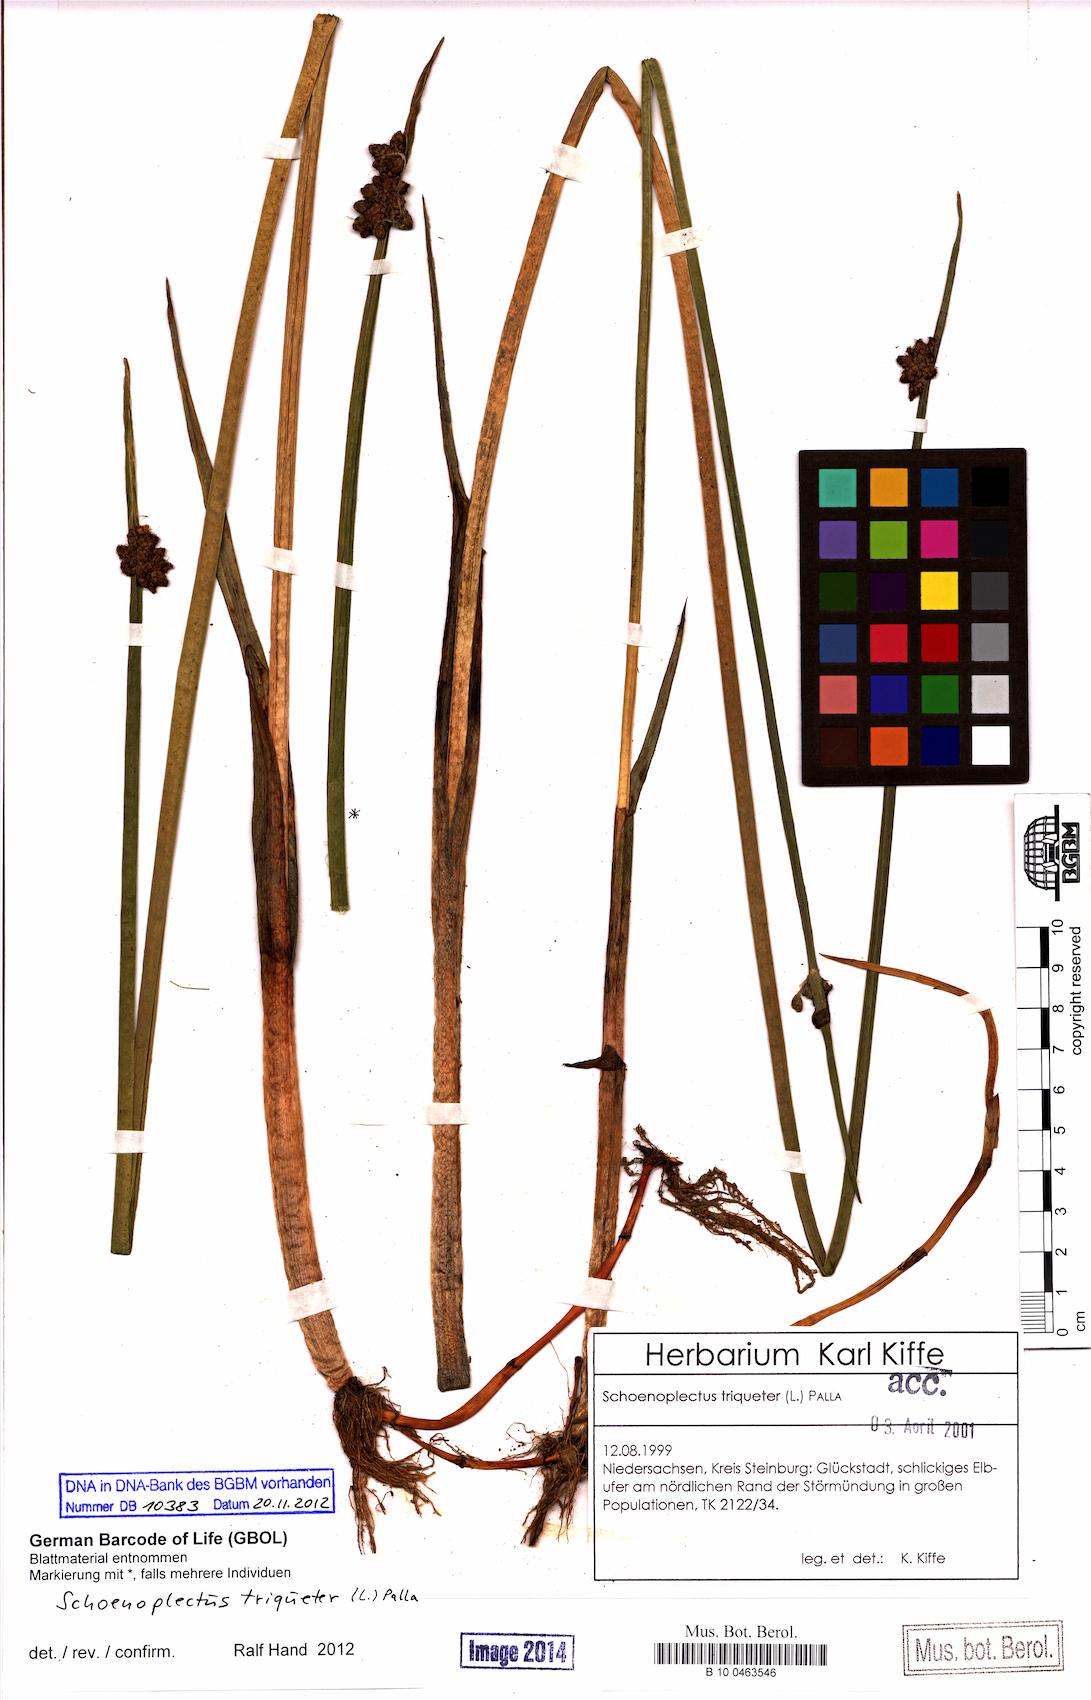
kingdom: Plantae
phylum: Tracheophyta
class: Liliopsida
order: Poales
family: Cyperaceae
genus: Schoenoplectus
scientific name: Schoenoplectus triqueter
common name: Triangular club-rush
